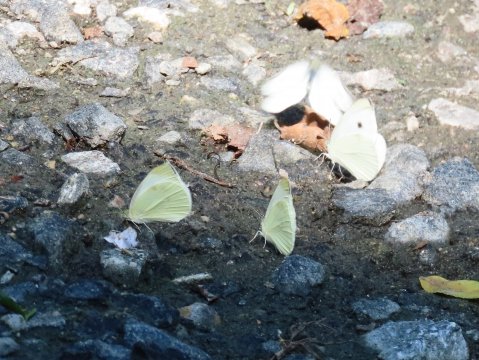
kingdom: Animalia
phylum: Arthropoda
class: Insecta
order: Lepidoptera
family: Pieridae
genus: Pieris
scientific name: Pieris rapae
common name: Cabbage White
